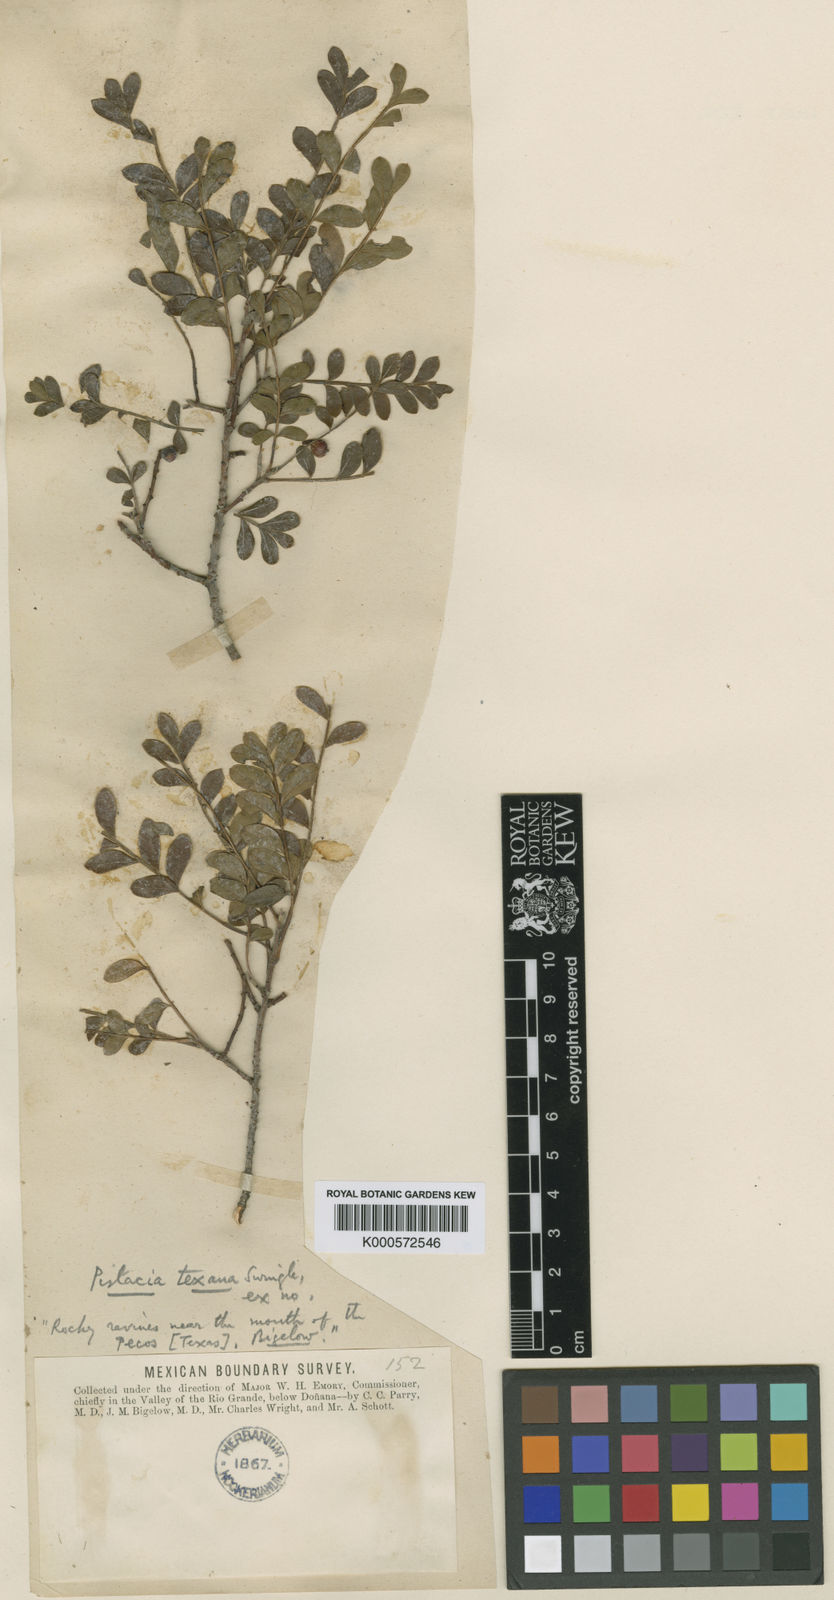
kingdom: Plantae
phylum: Tracheophyta
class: Magnoliopsida
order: Sapindales
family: Anacardiaceae
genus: Pistacia
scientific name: Pistacia mexicana
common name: Mexican pistachio
